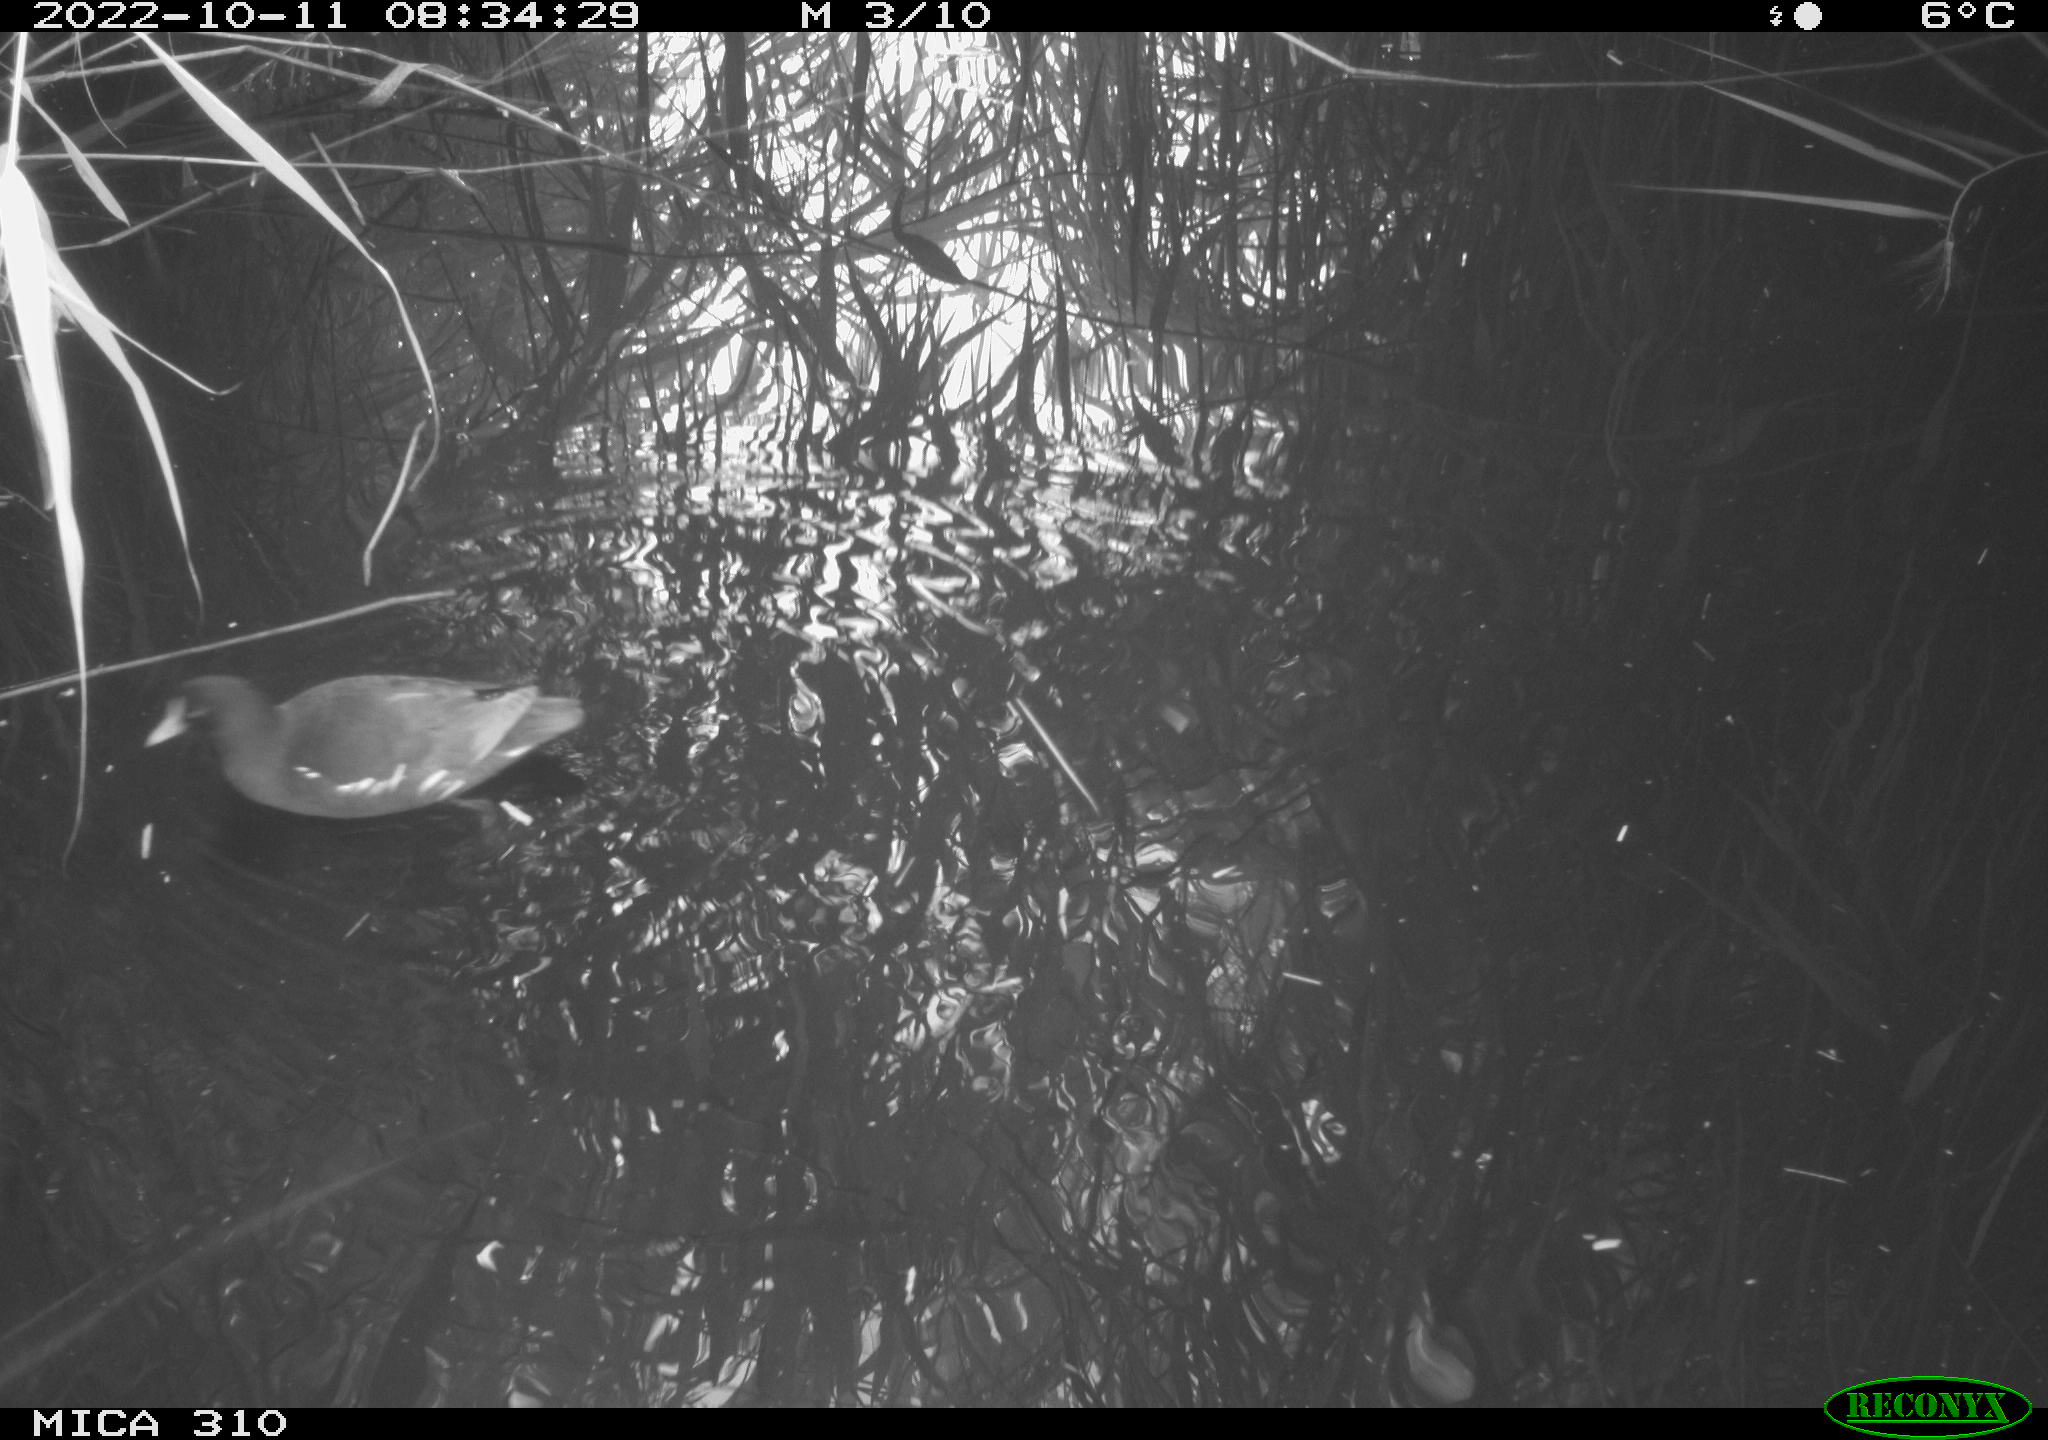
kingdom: Animalia
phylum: Chordata
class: Aves
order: Gruiformes
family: Rallidae
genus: Gallinula
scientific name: Gallinula chloropus
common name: Common moorhen
